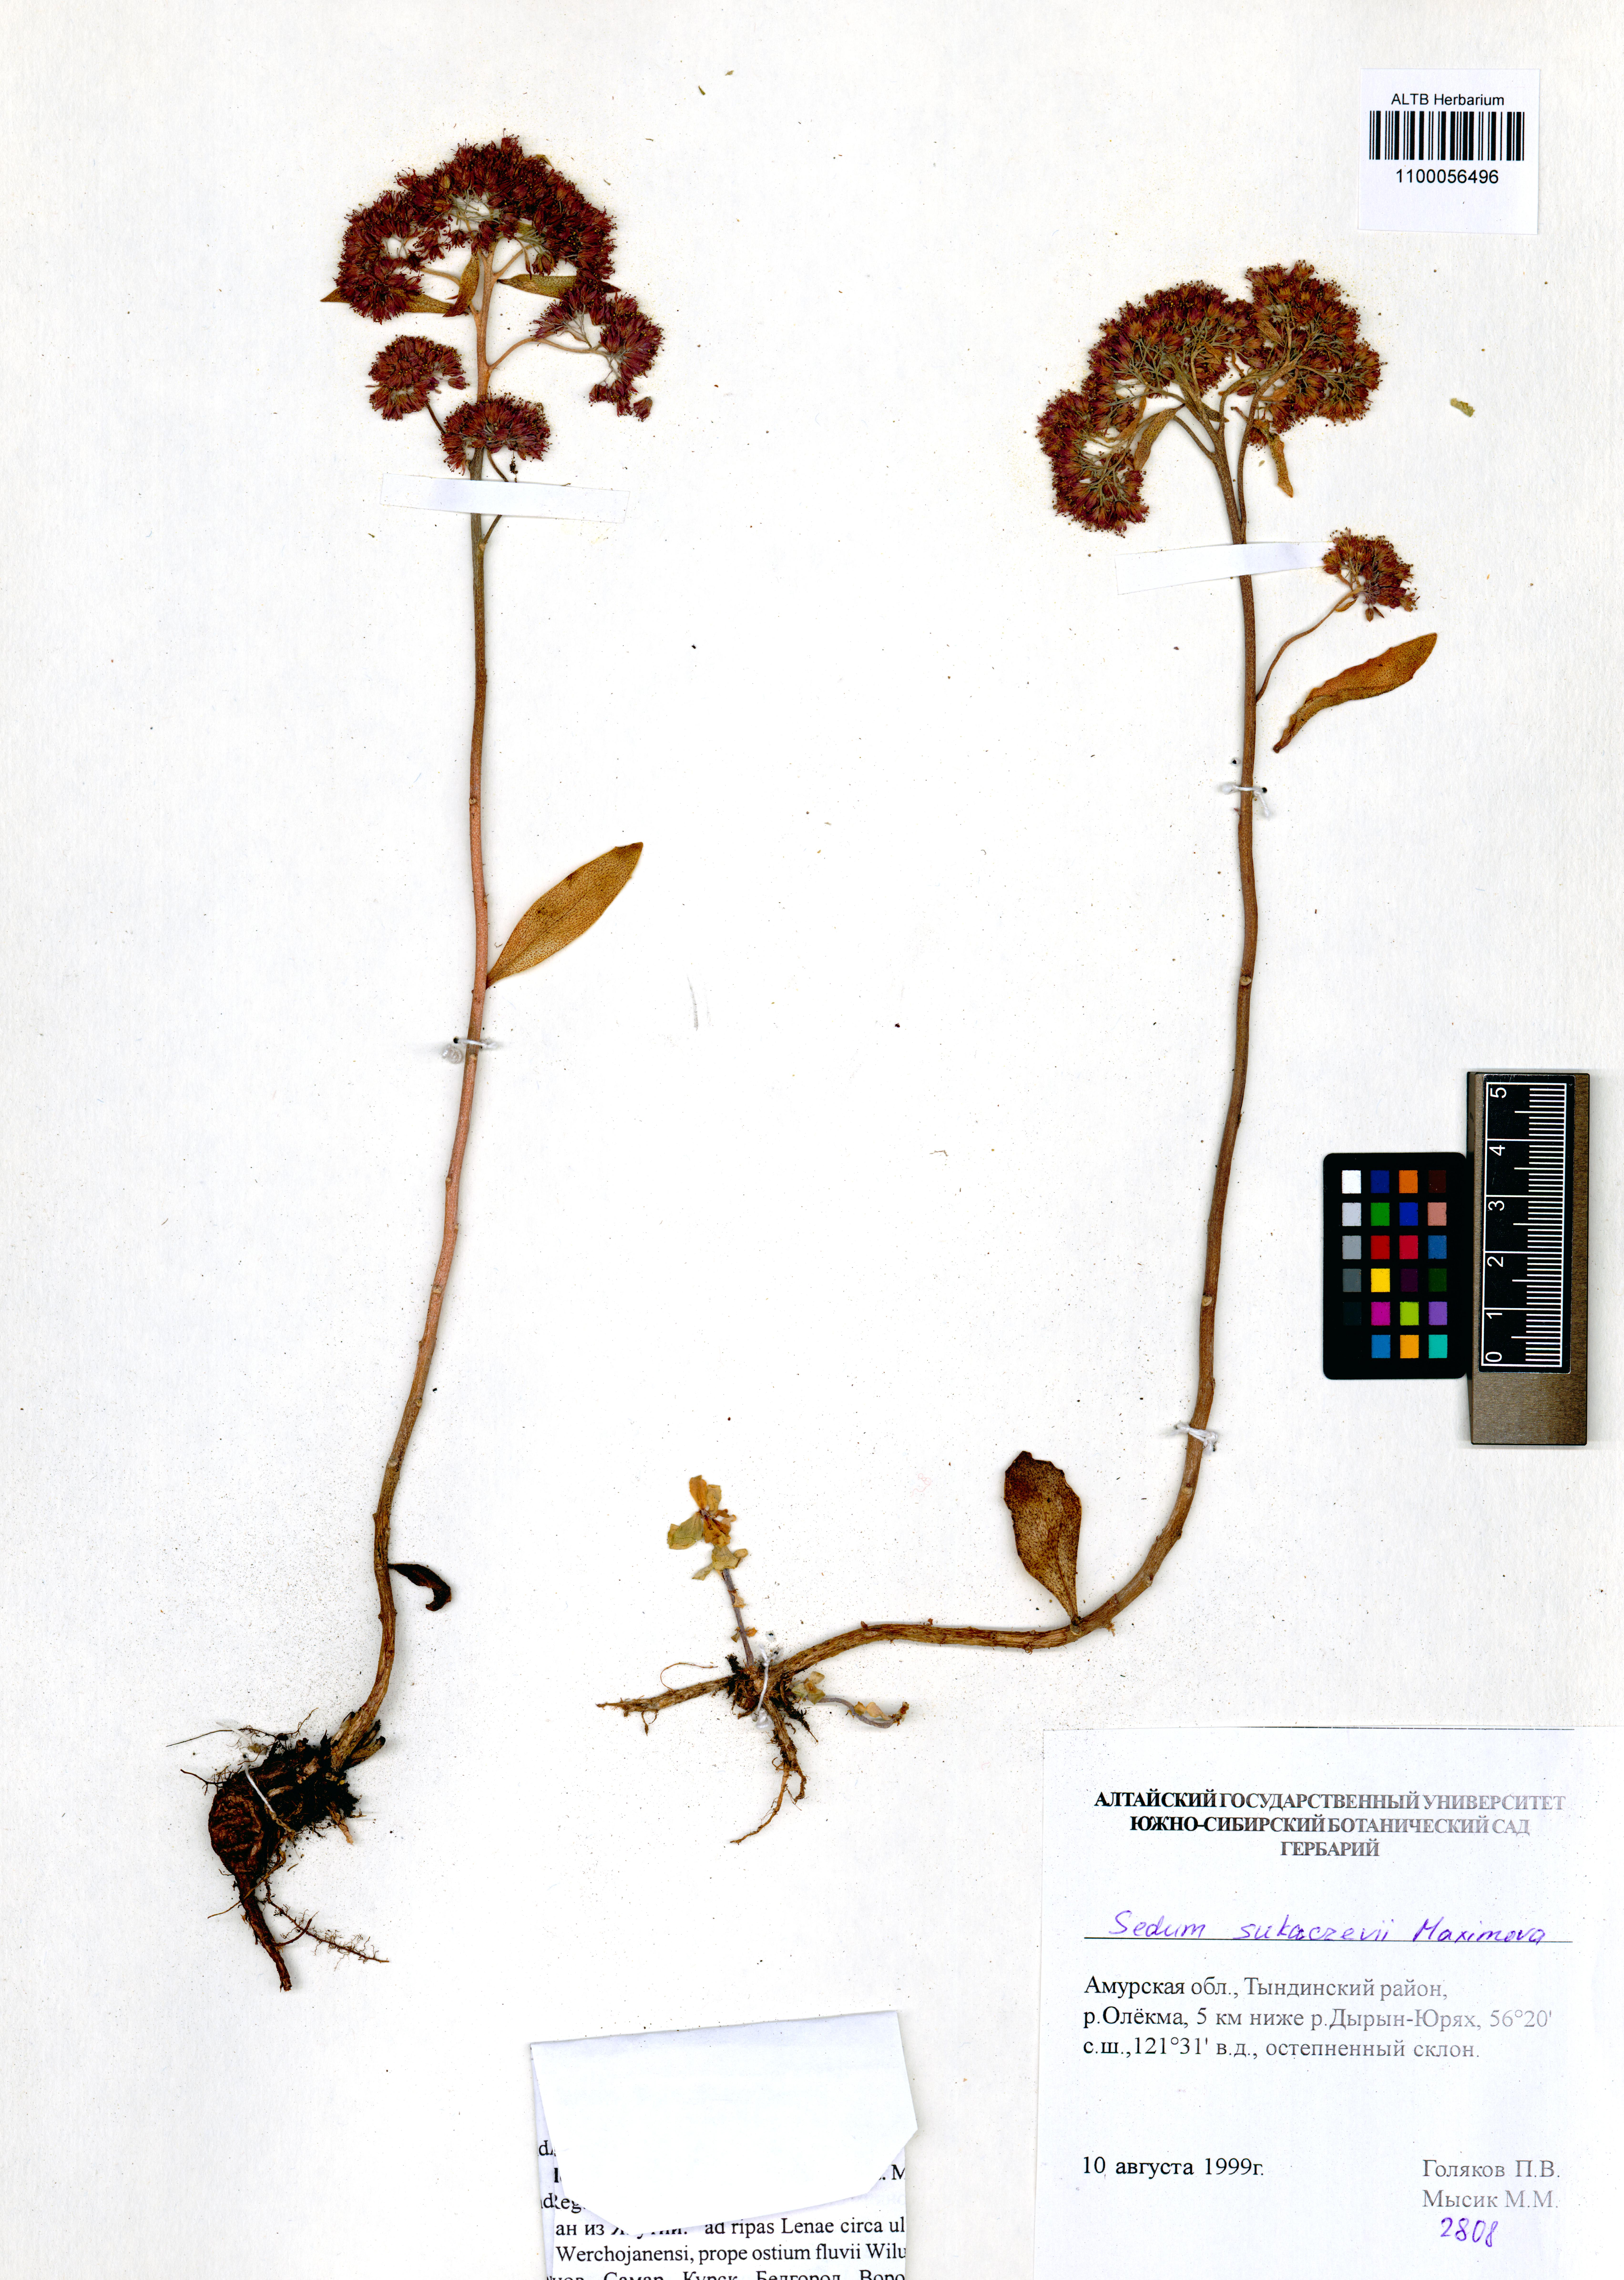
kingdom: Plantae
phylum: Tracheophyta
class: Magnoliopsida
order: Saxifragales
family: Crassulaceae
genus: Hylotelephium
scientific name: Hylotelephium pallescens
